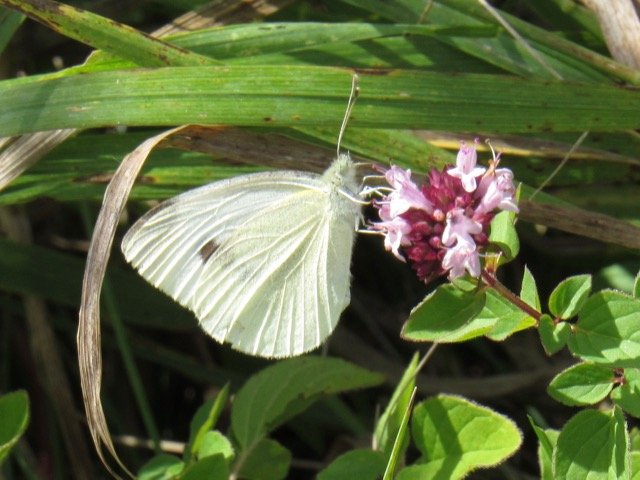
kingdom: Animalia
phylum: Arthropoda
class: Insecta
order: Lepidoptera
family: Pieridae
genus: Pieris
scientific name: Pieris rapae
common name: Cabbage White
